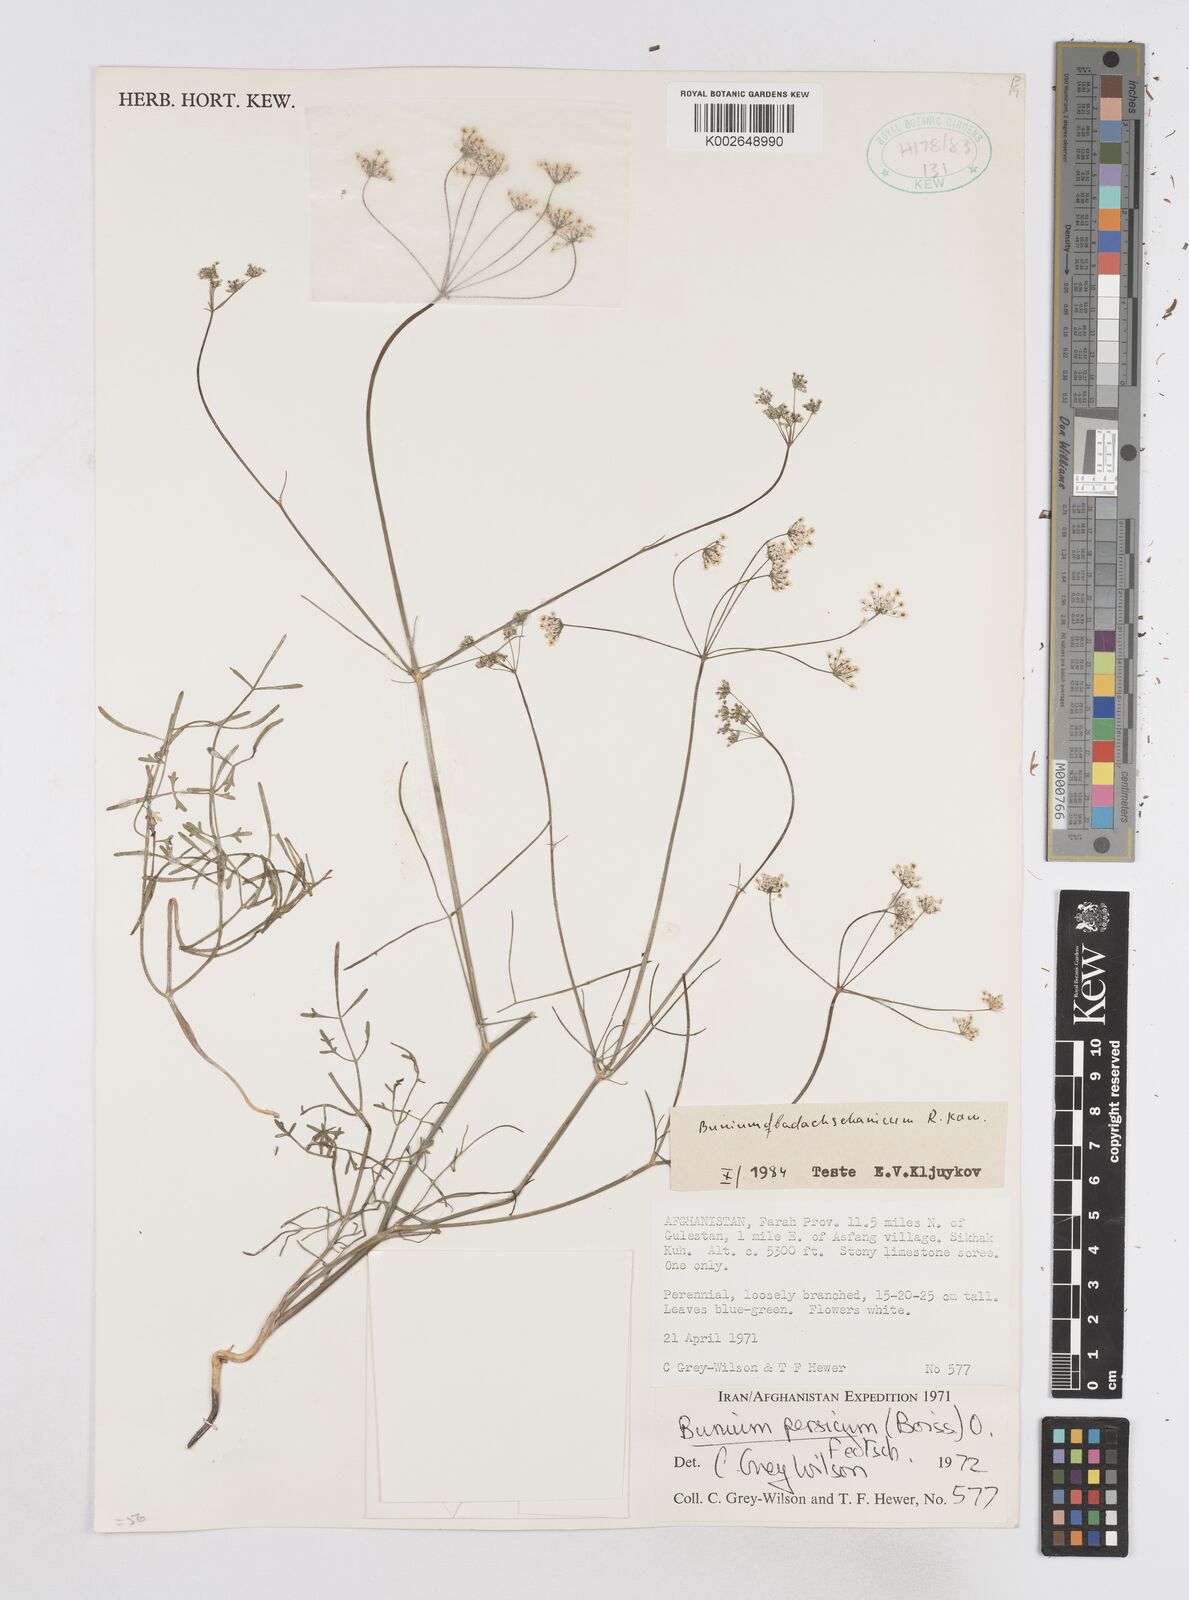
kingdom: Plantae
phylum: Tracheophyta
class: Magnoliopsida
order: Apiales
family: Apiaceae
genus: Elwendia
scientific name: Elwendia badachschanica
